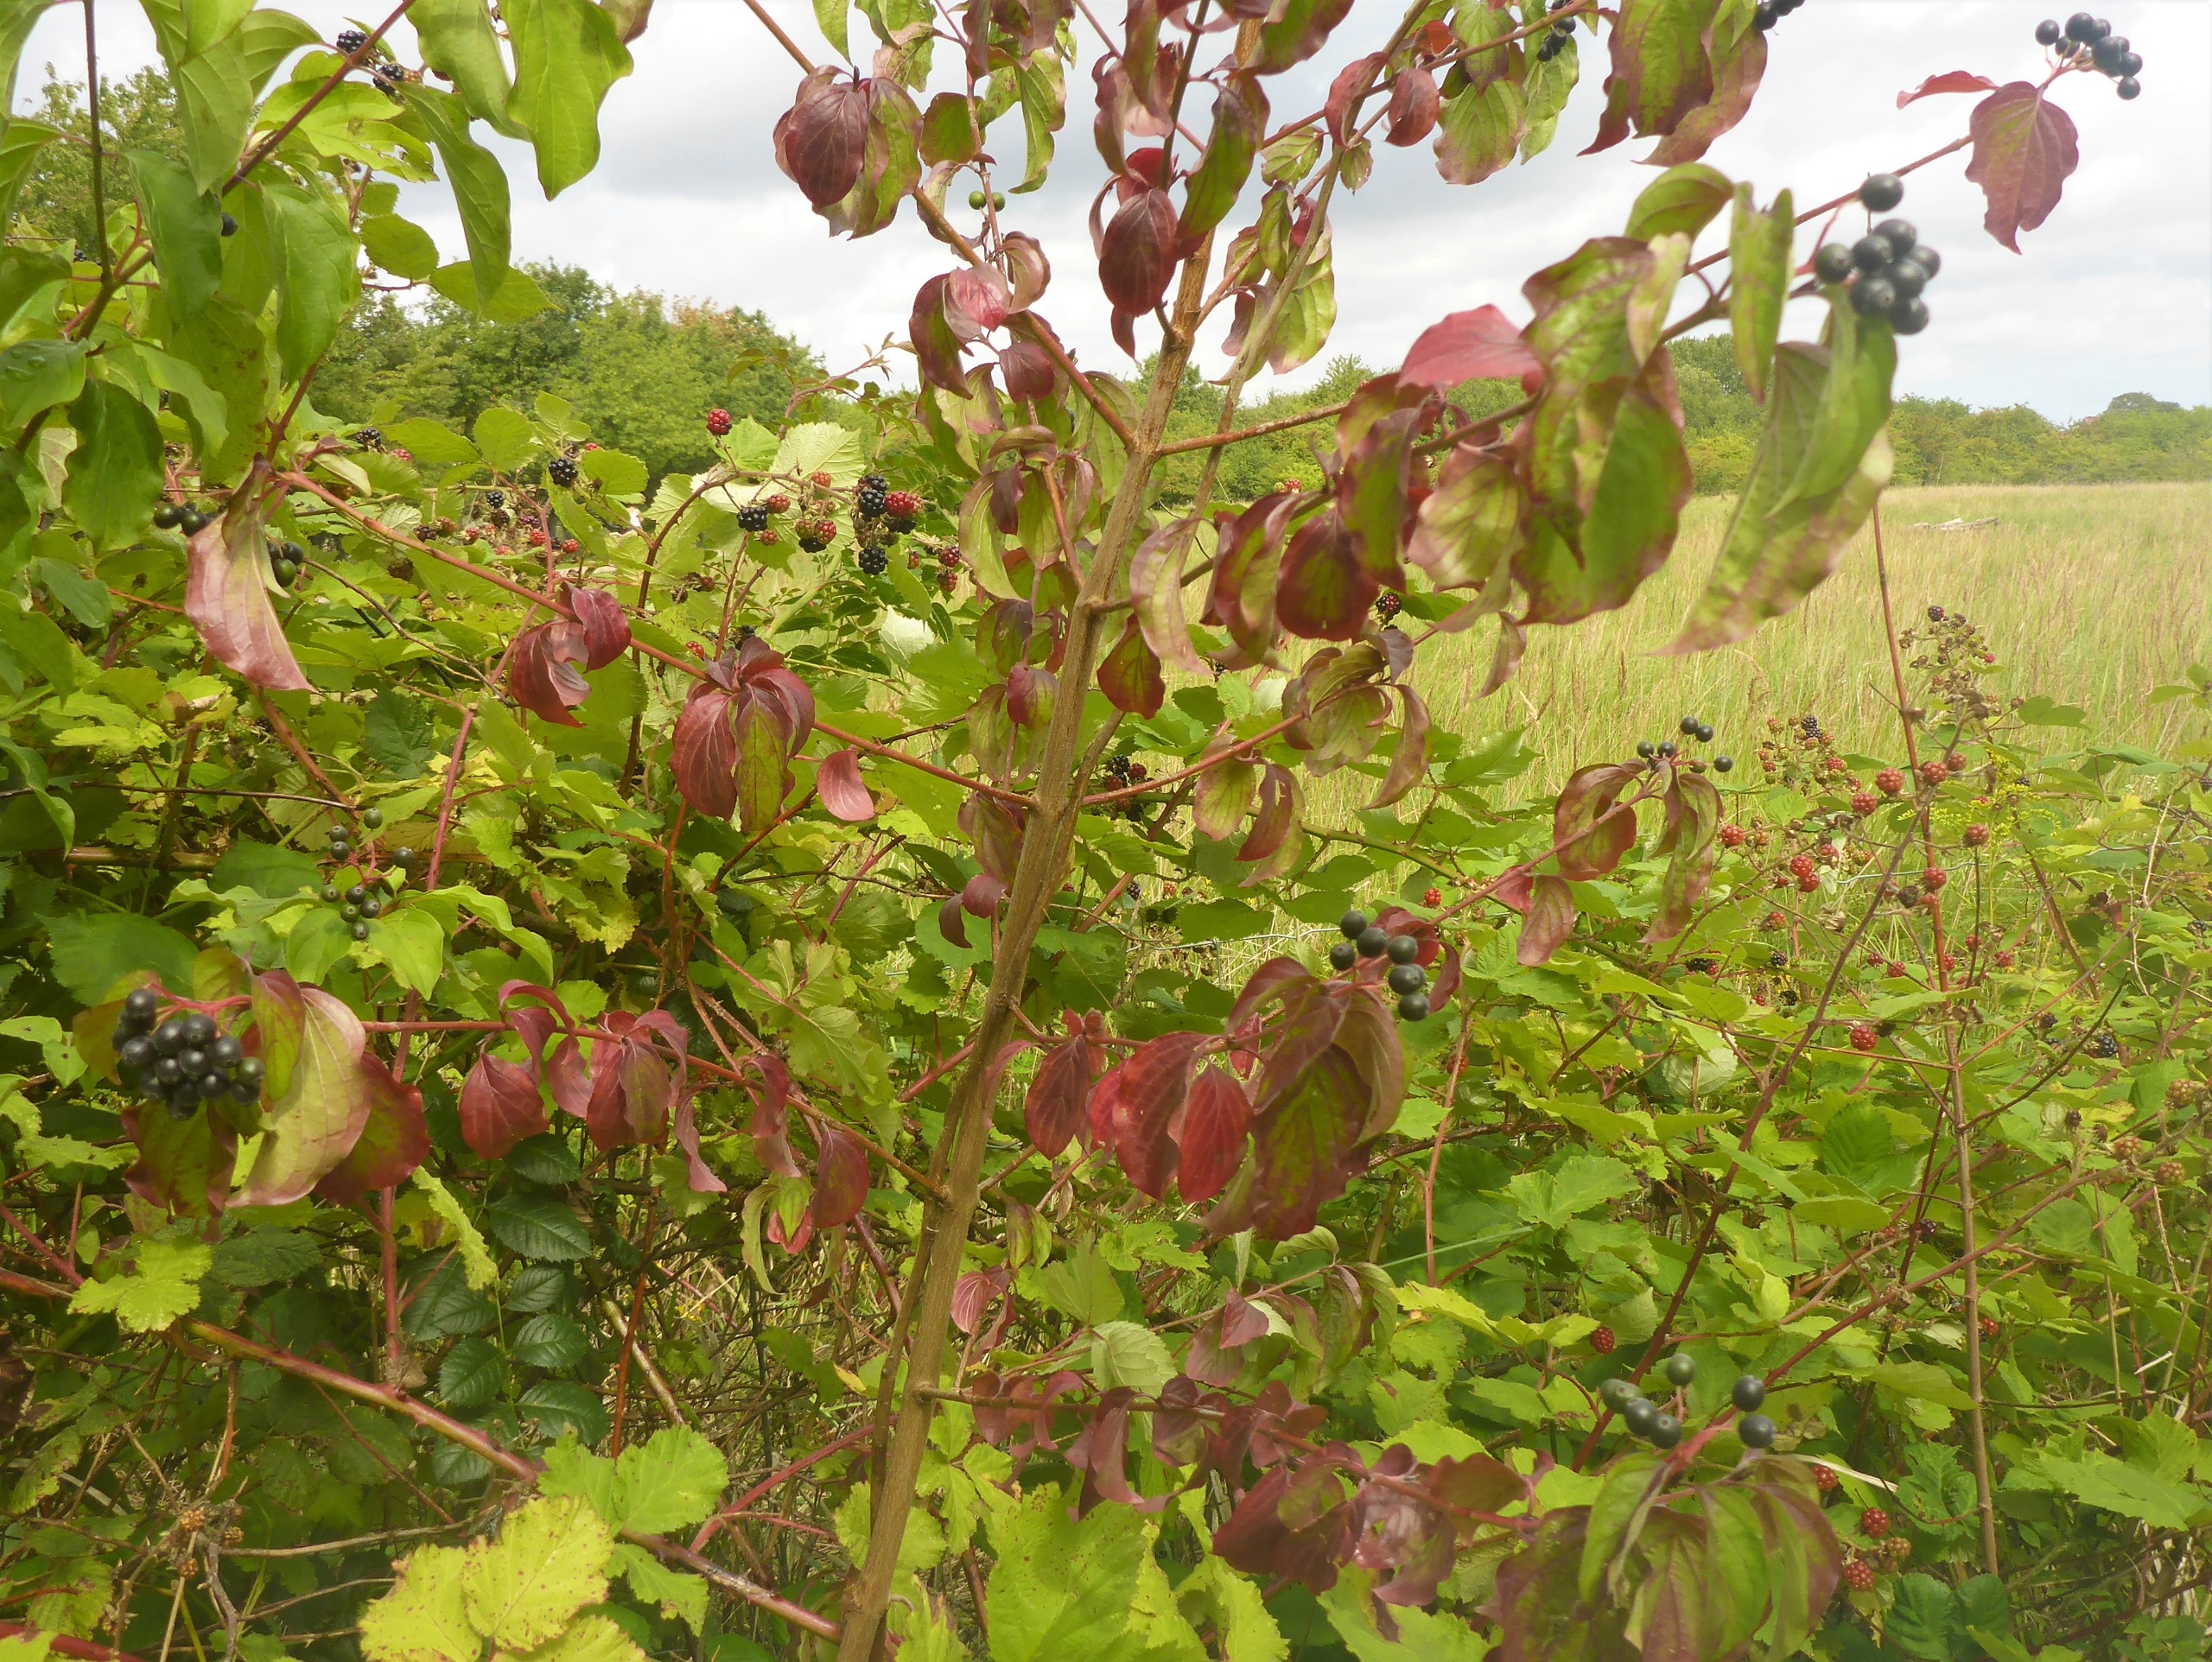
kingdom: Plantae
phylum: Tracheophyta
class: Magnoliopsida
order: Cornales
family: Cornaceae
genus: Cornus
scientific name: Cornus sanguinea
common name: Rød kornel
